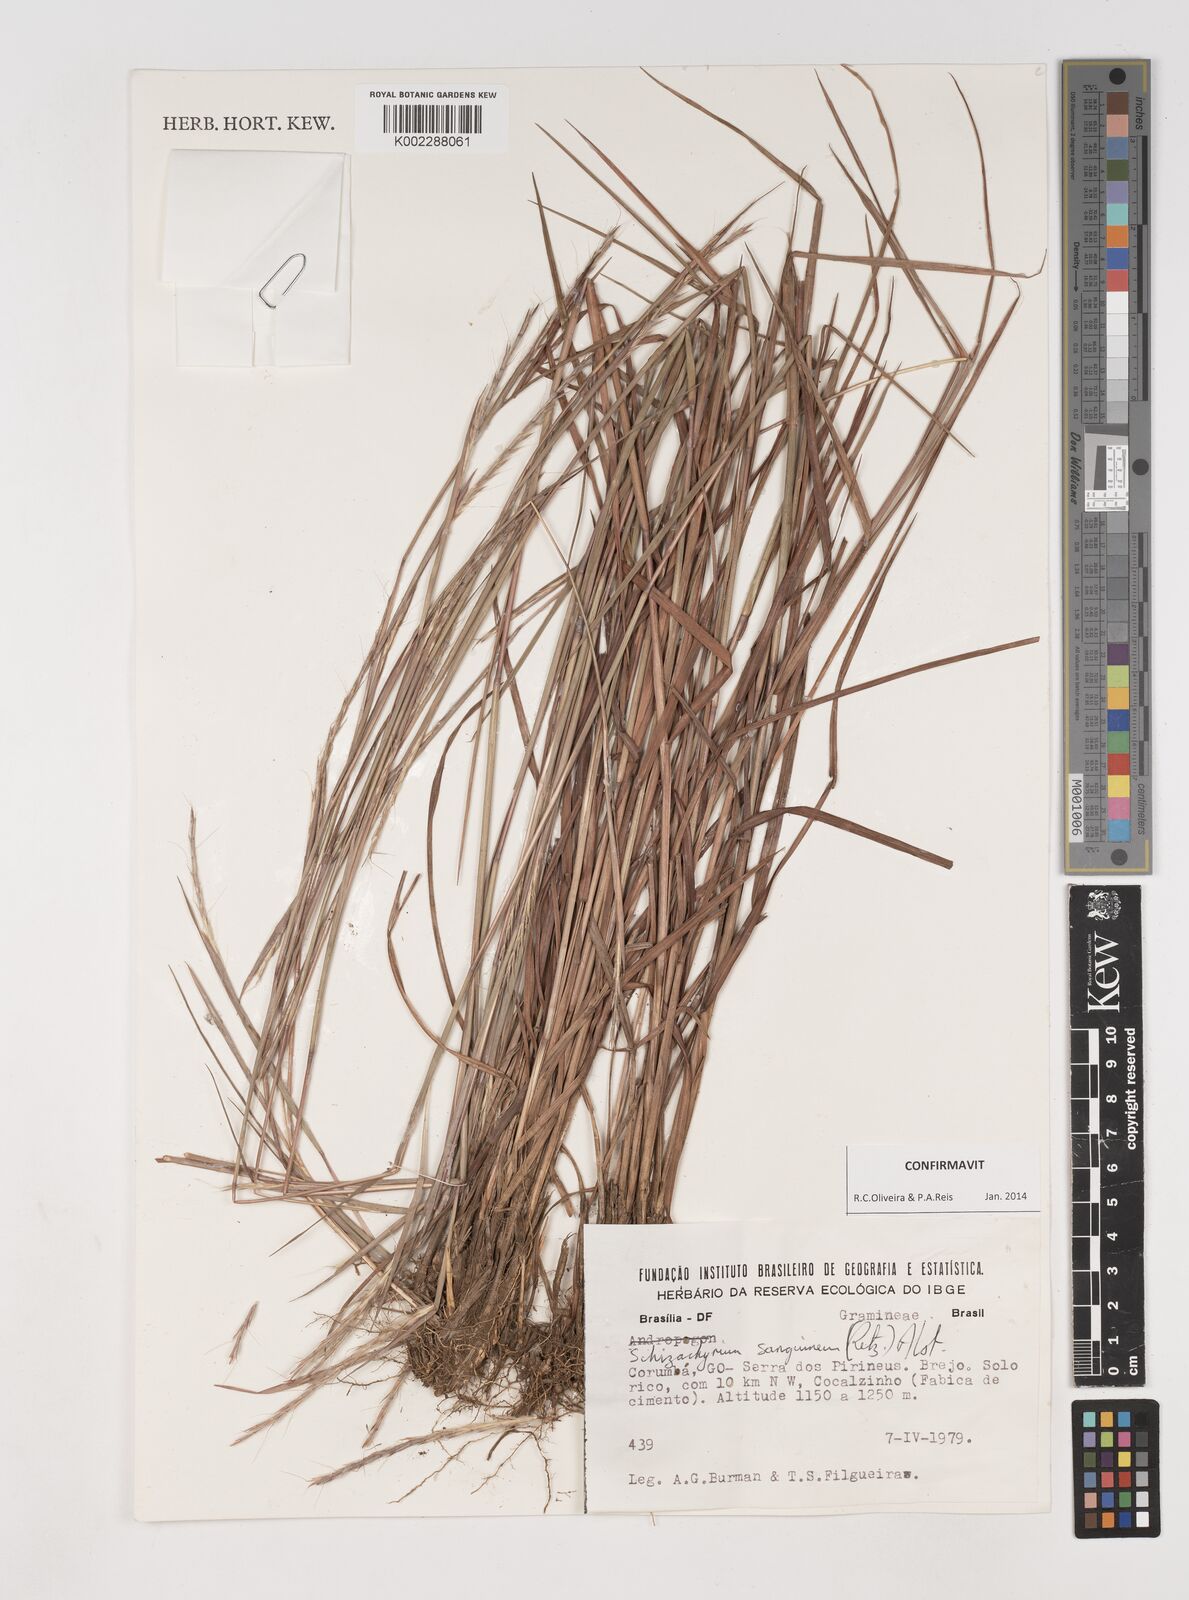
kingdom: Plantae
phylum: Tracheophyta
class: Liliopsida
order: Poales
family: Poaceae
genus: Schizachyrium
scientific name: Schizachyrium sanguineum
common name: Crimson bluestem
